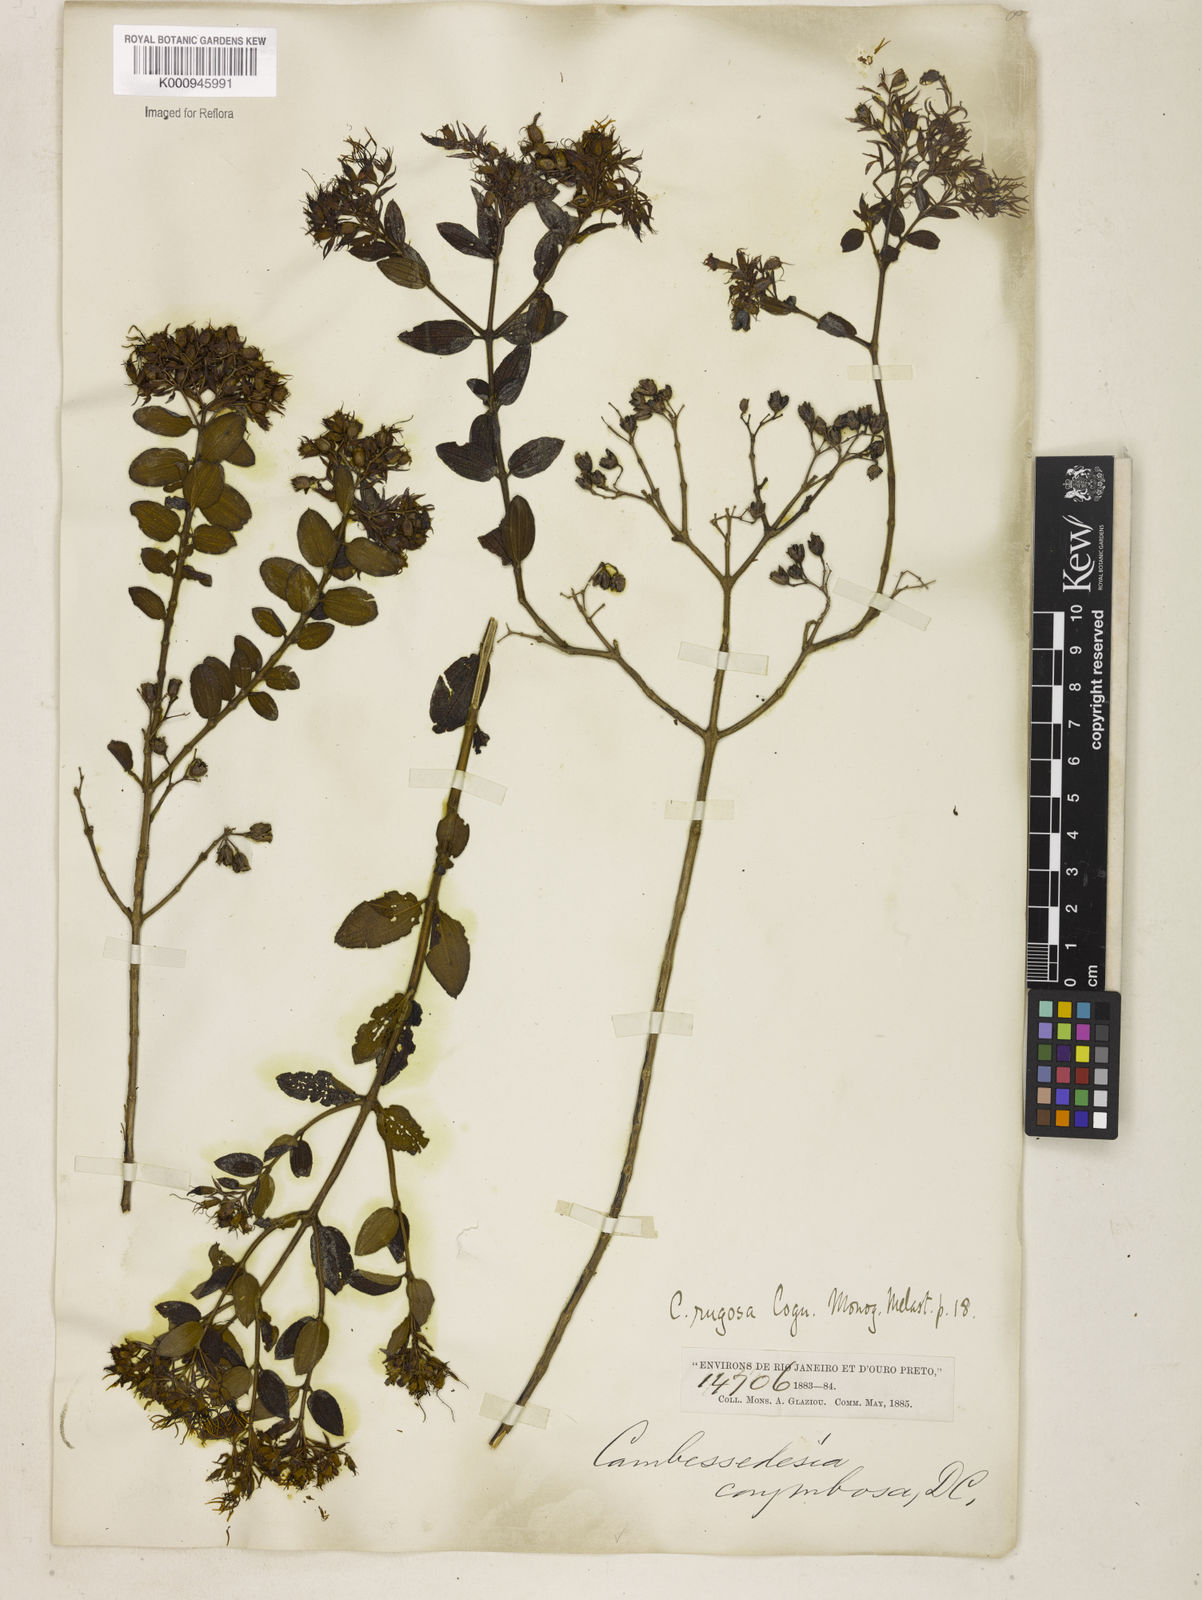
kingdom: Plantae
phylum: Tracheophyta
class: Magnoliopsida
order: Myrtales
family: Melastomataceae
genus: Cambessedesia
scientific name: Cambessedesia corymbosa
